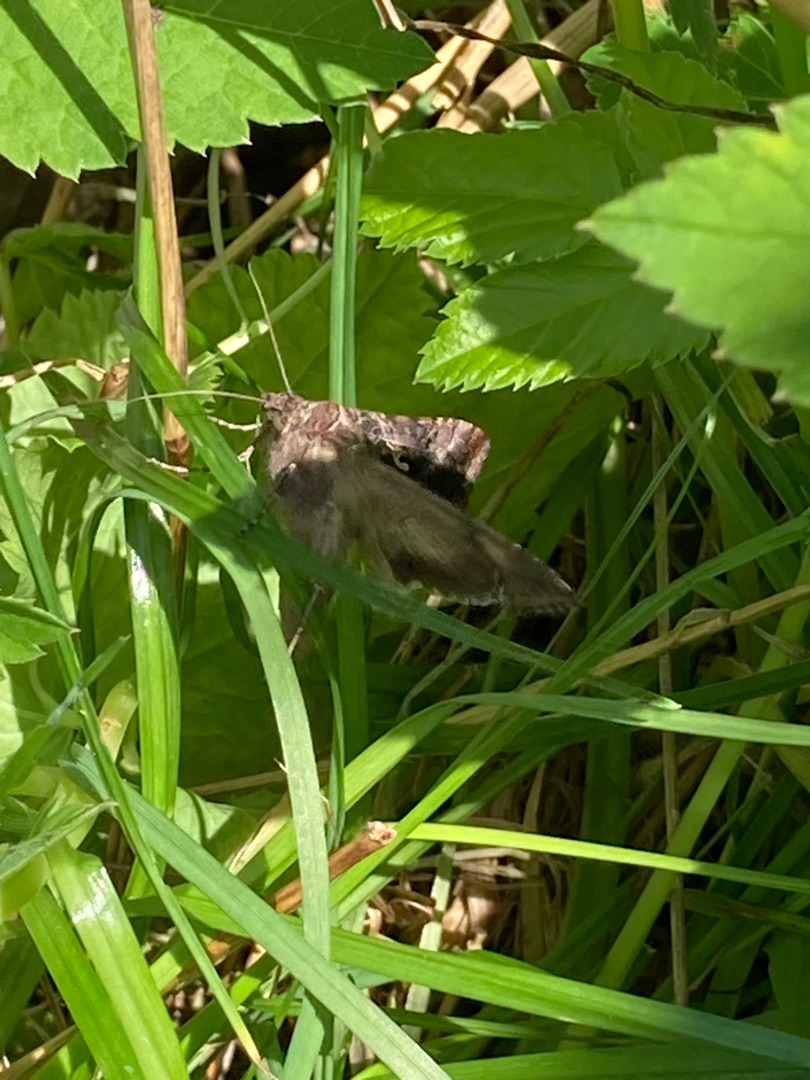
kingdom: Animalia
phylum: Arthropoda
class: Insecta
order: Lepidoptera
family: Noctuidae
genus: Autographa
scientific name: Autographa gamma
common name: Gammaugle
